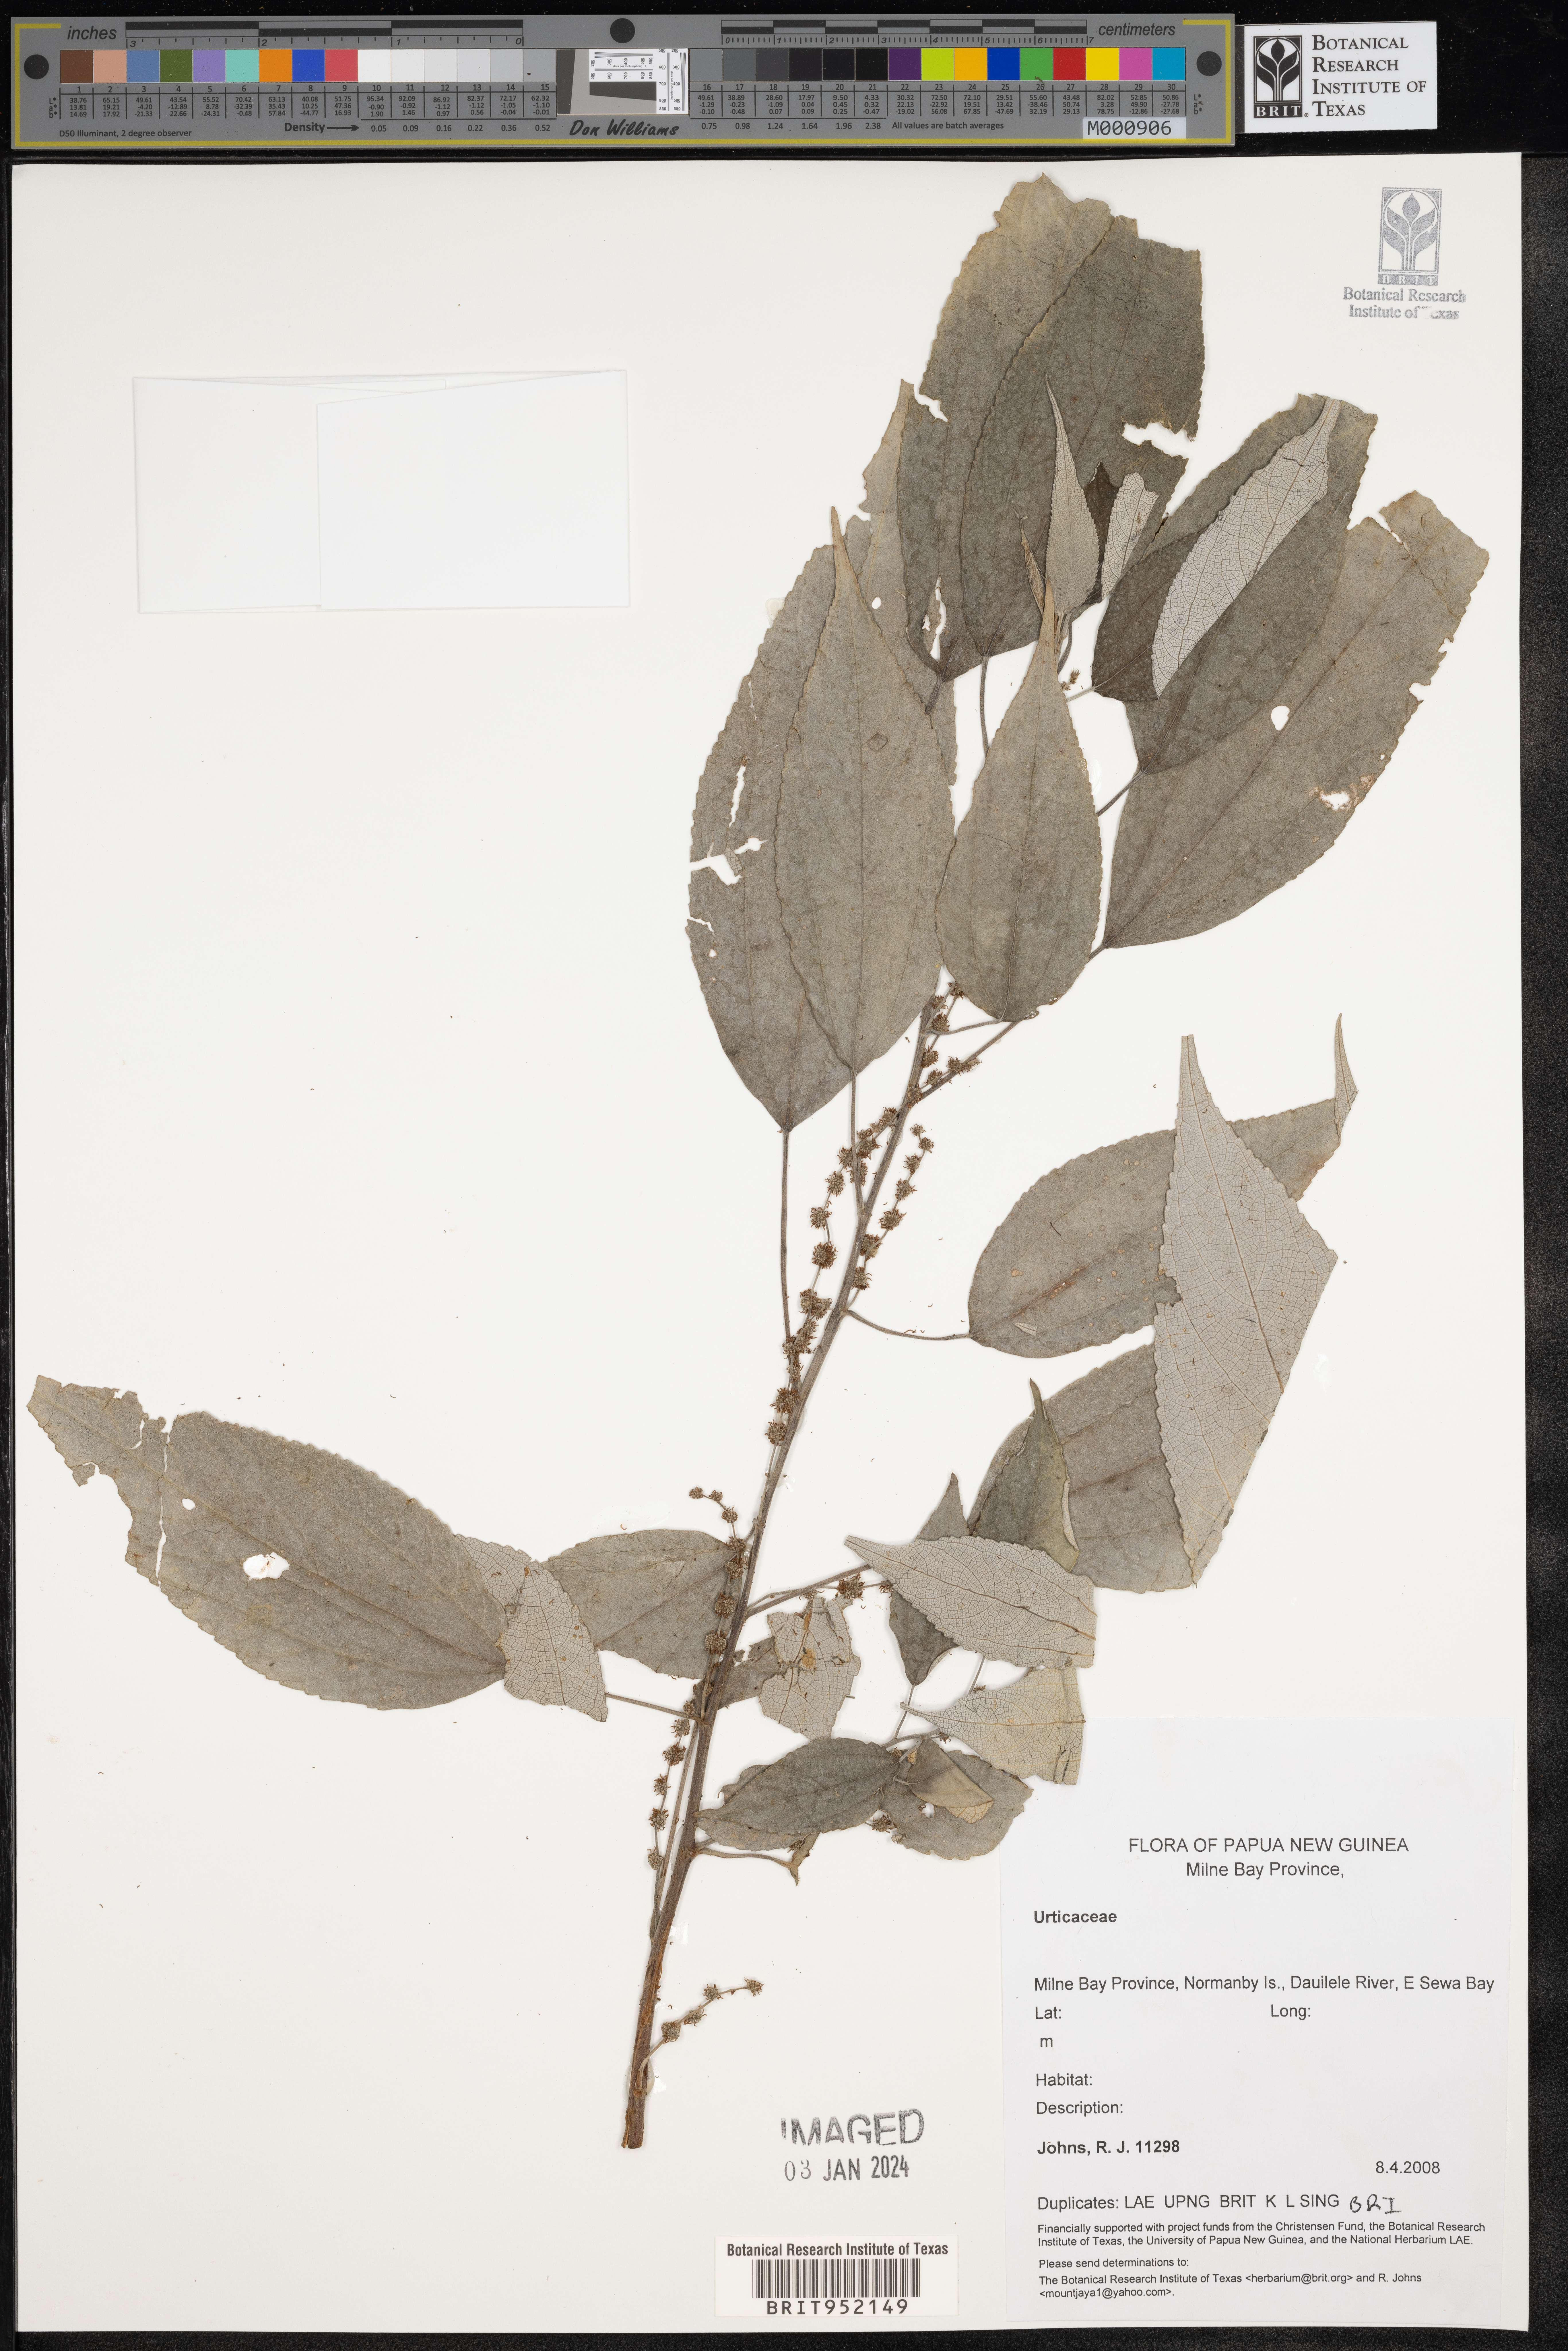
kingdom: Plantae
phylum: Tracheophyta
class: Magnoliopsida
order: Rosales
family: Urticaceae
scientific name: Urticaceae
